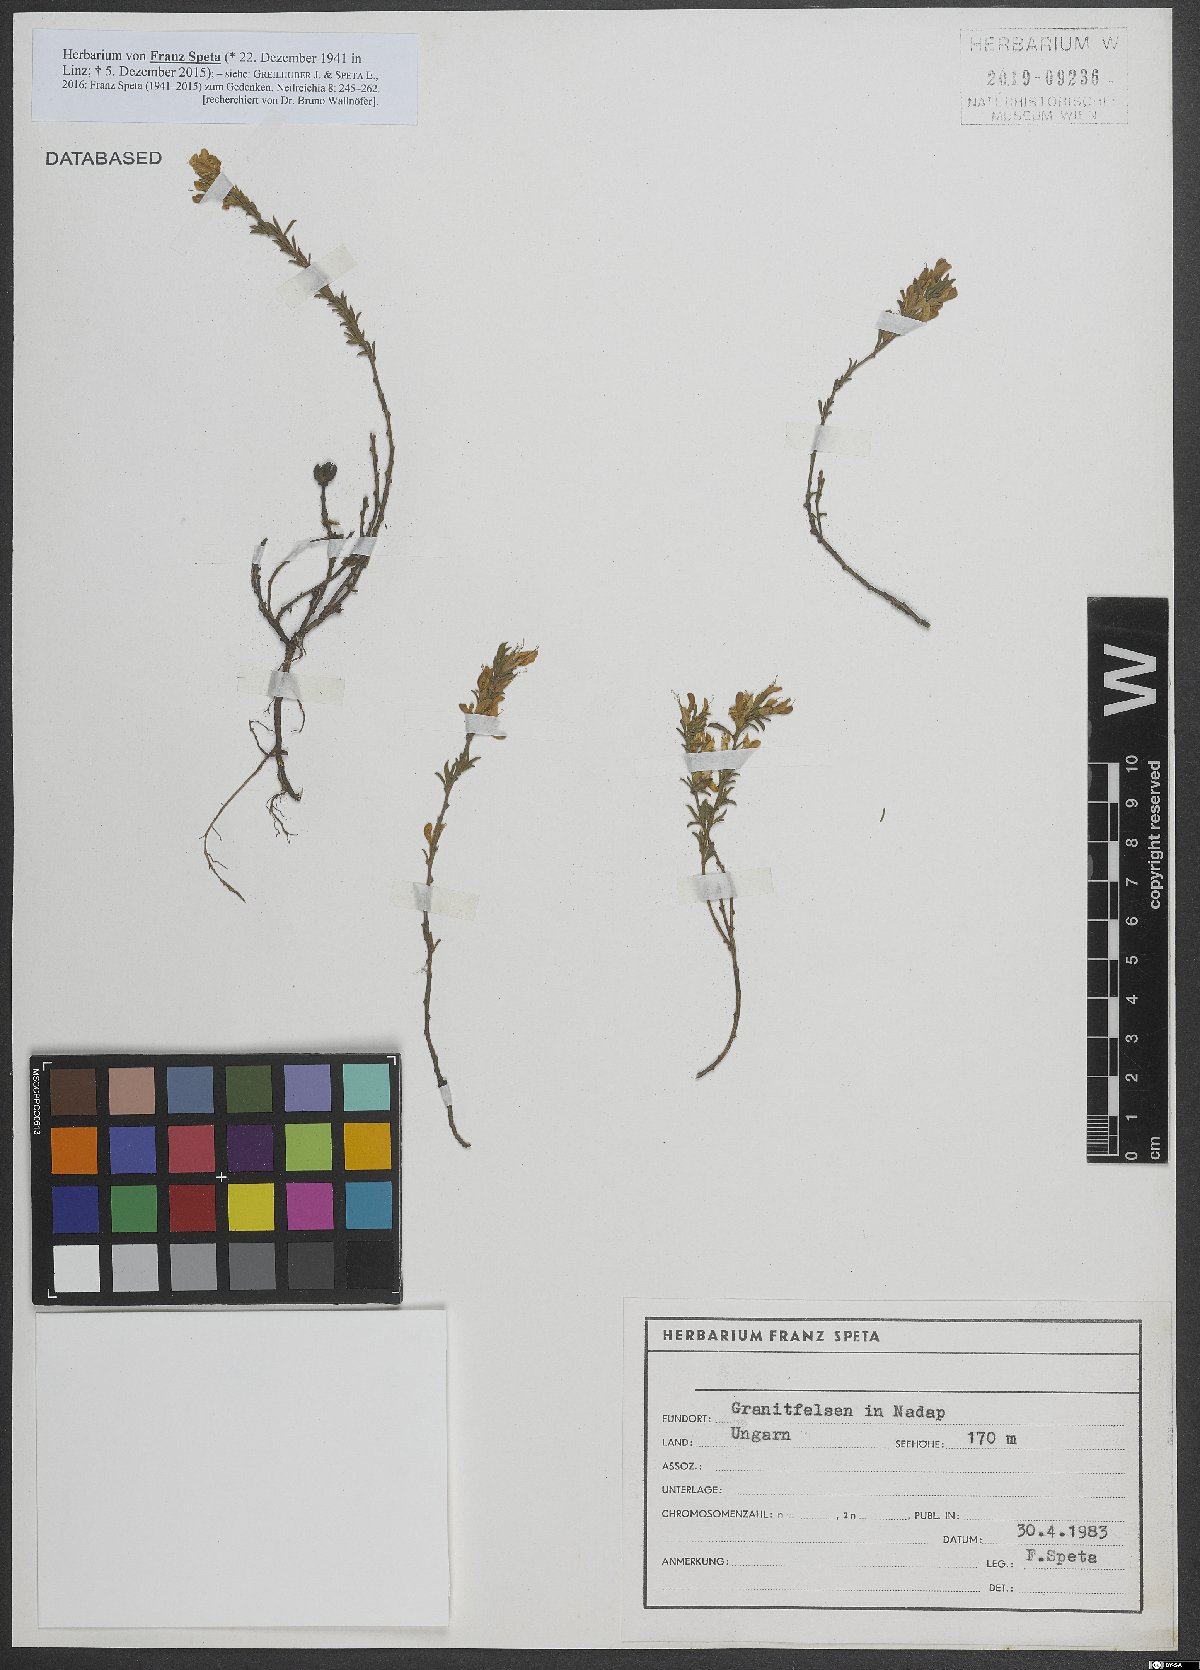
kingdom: Plantae
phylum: Tracheophyta
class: Magnoliopsida
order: Fabales
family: Fabaceae
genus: Genista
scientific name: Genista pilosa
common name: Hairy greenweed
